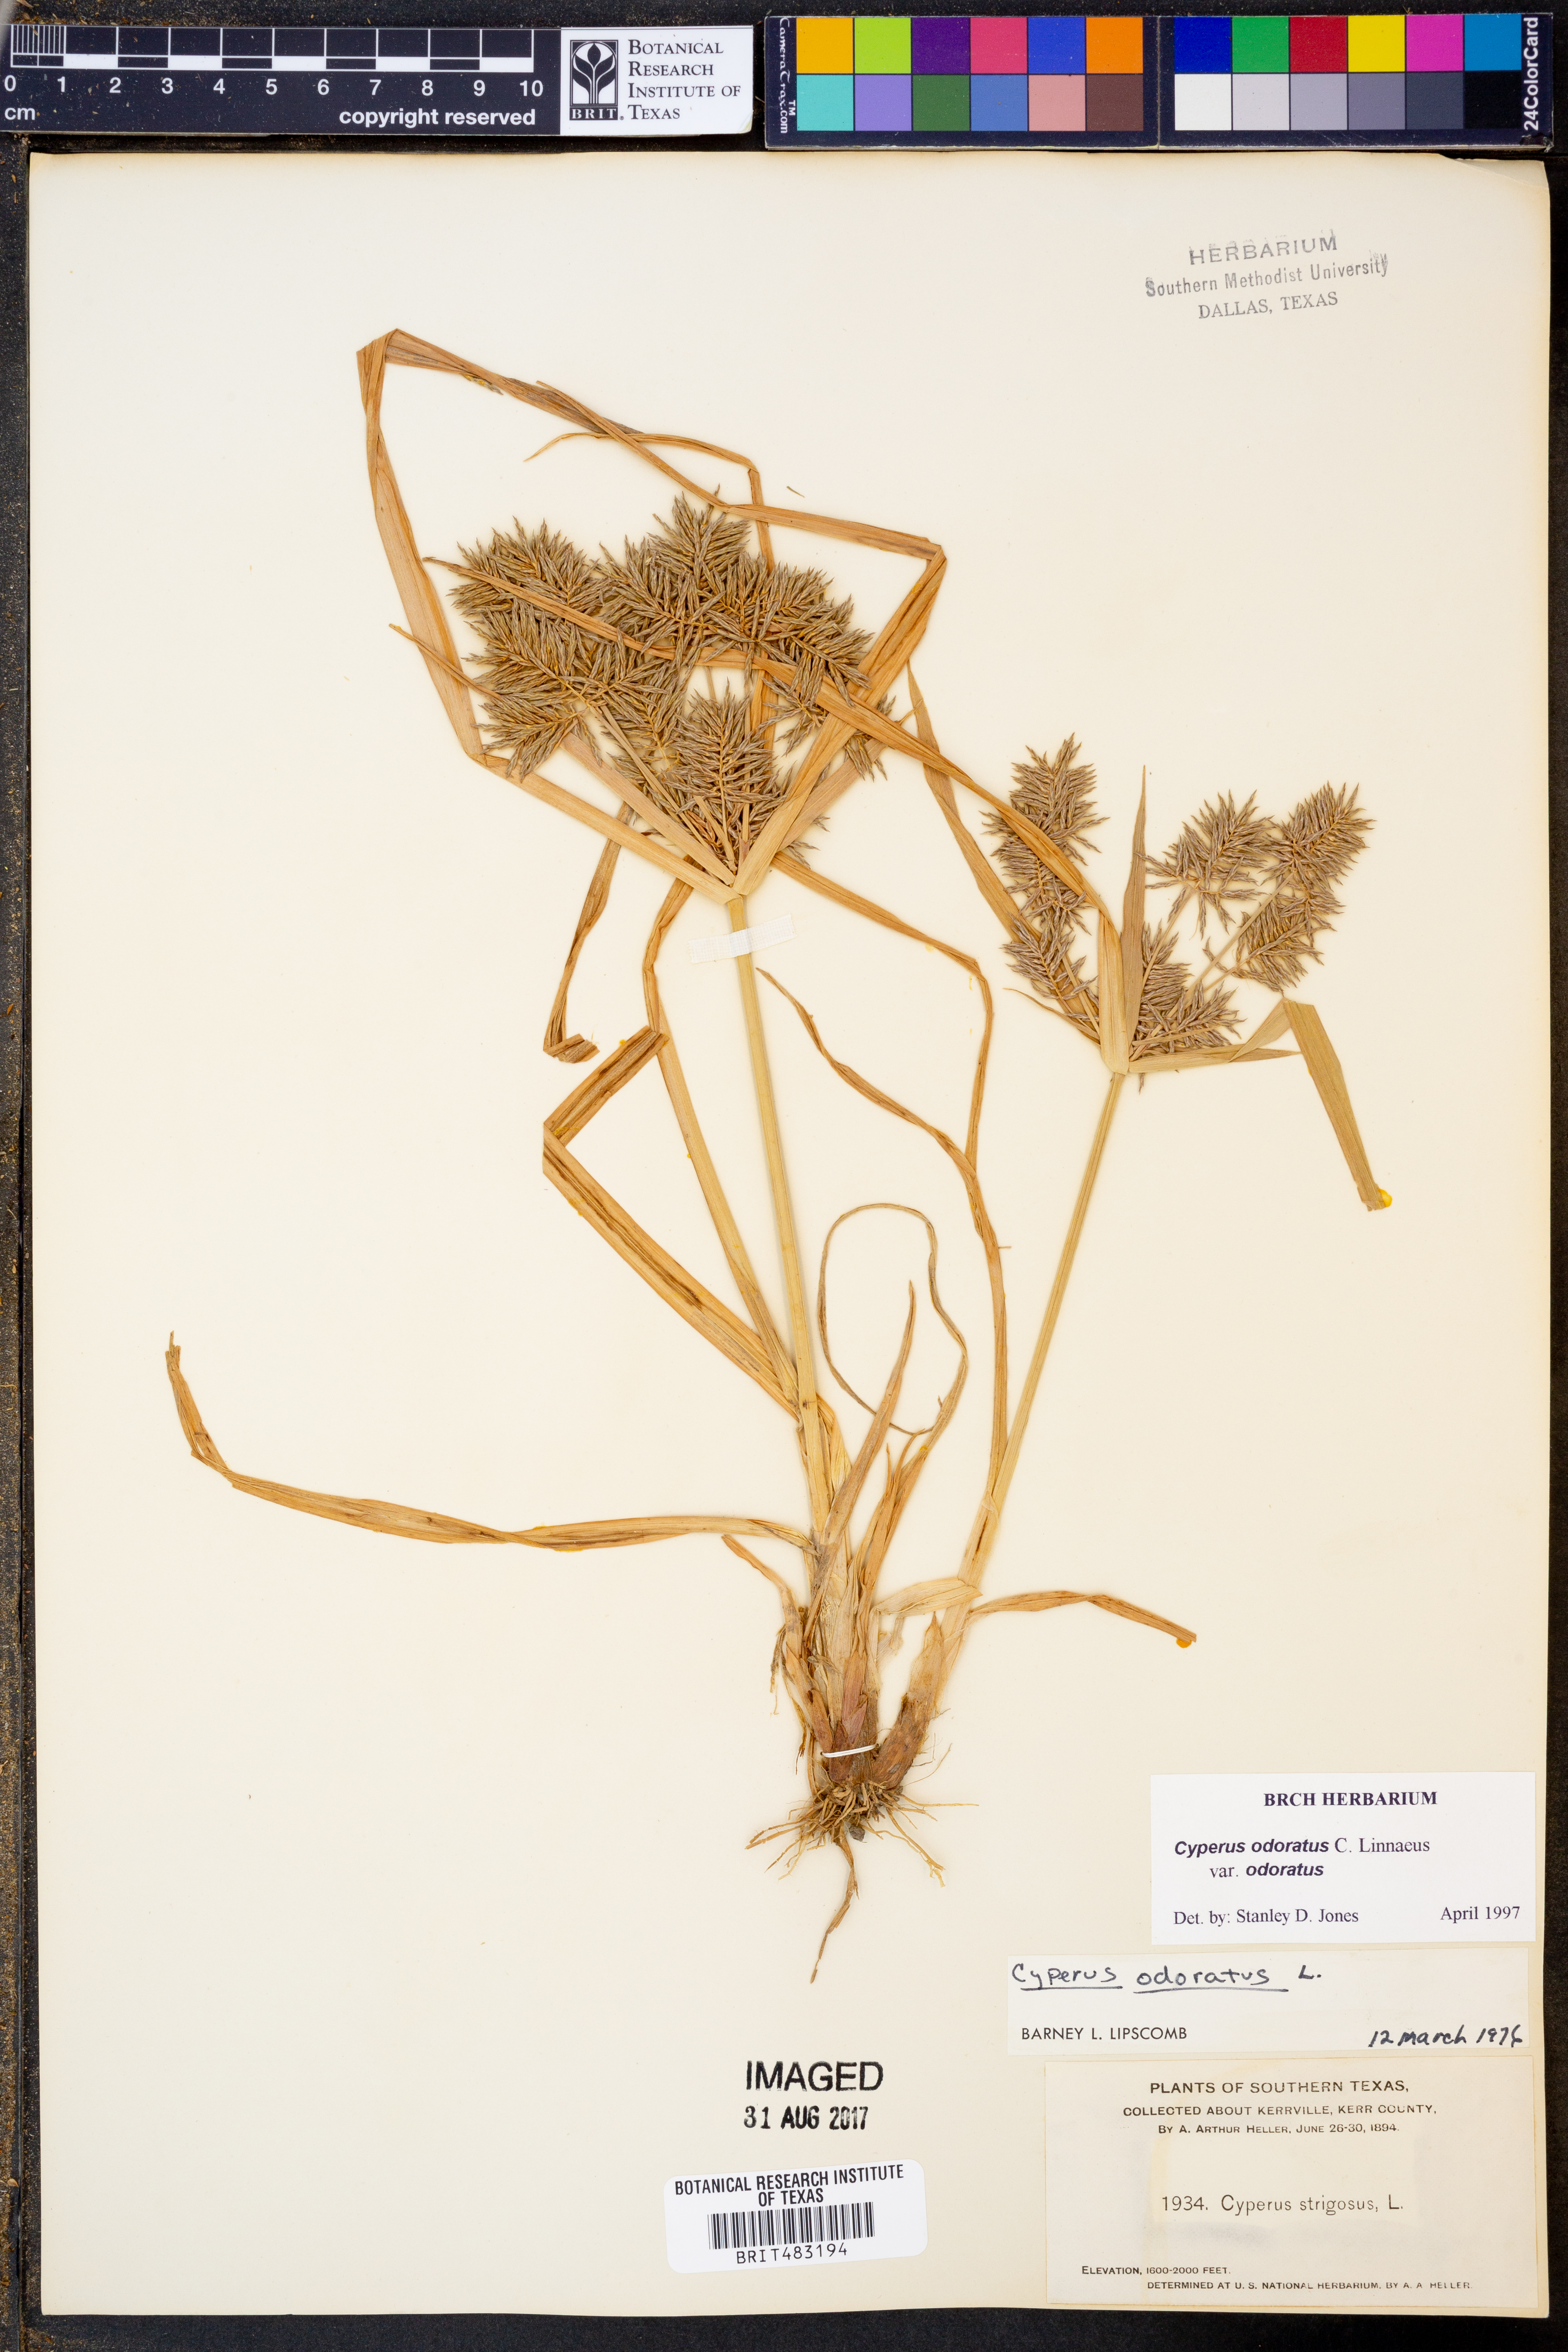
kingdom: Plantae
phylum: Tracheophyta
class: Liliopsida
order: Poales
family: Cyperaceae
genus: Cyperus
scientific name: Cyperus odoratus
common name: Fragrant flatsedge
